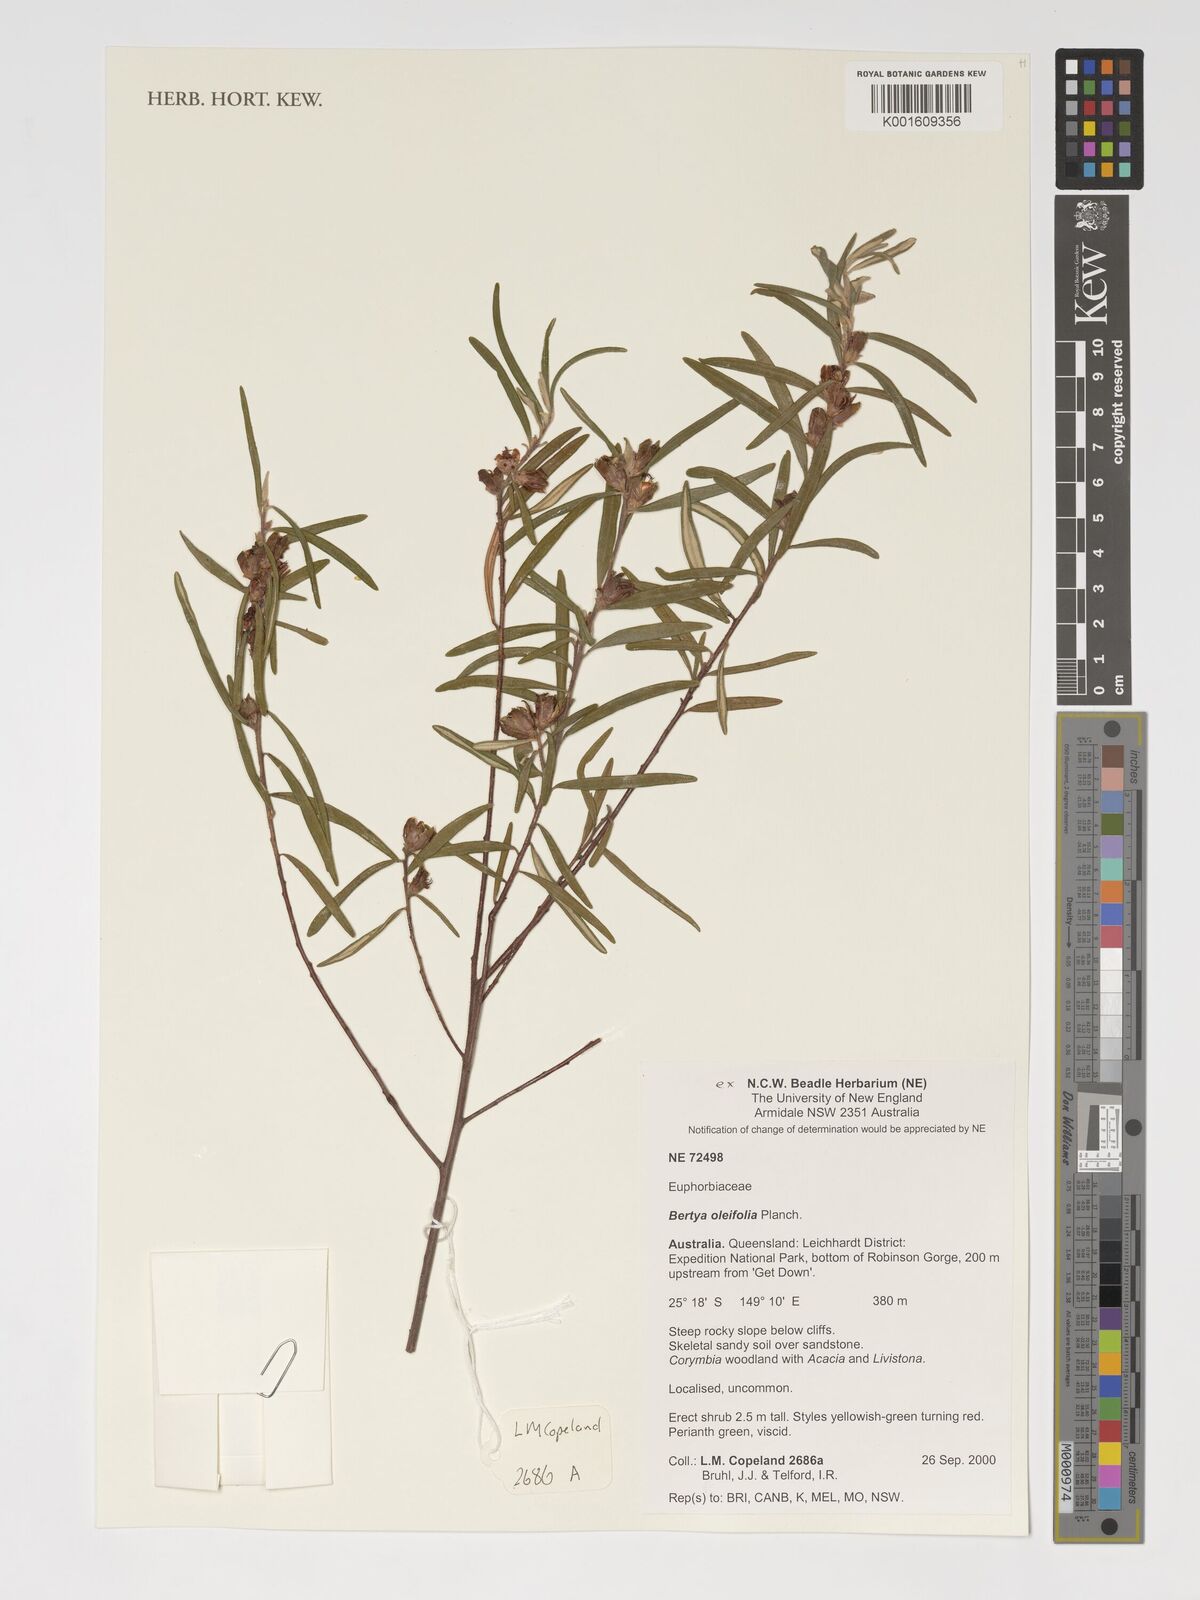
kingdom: Plantae
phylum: Tracheophyta
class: Magnoliopsida
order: Malpighiales
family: Euphorbiaceae
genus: Bertya
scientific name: Bertya oleifolia
